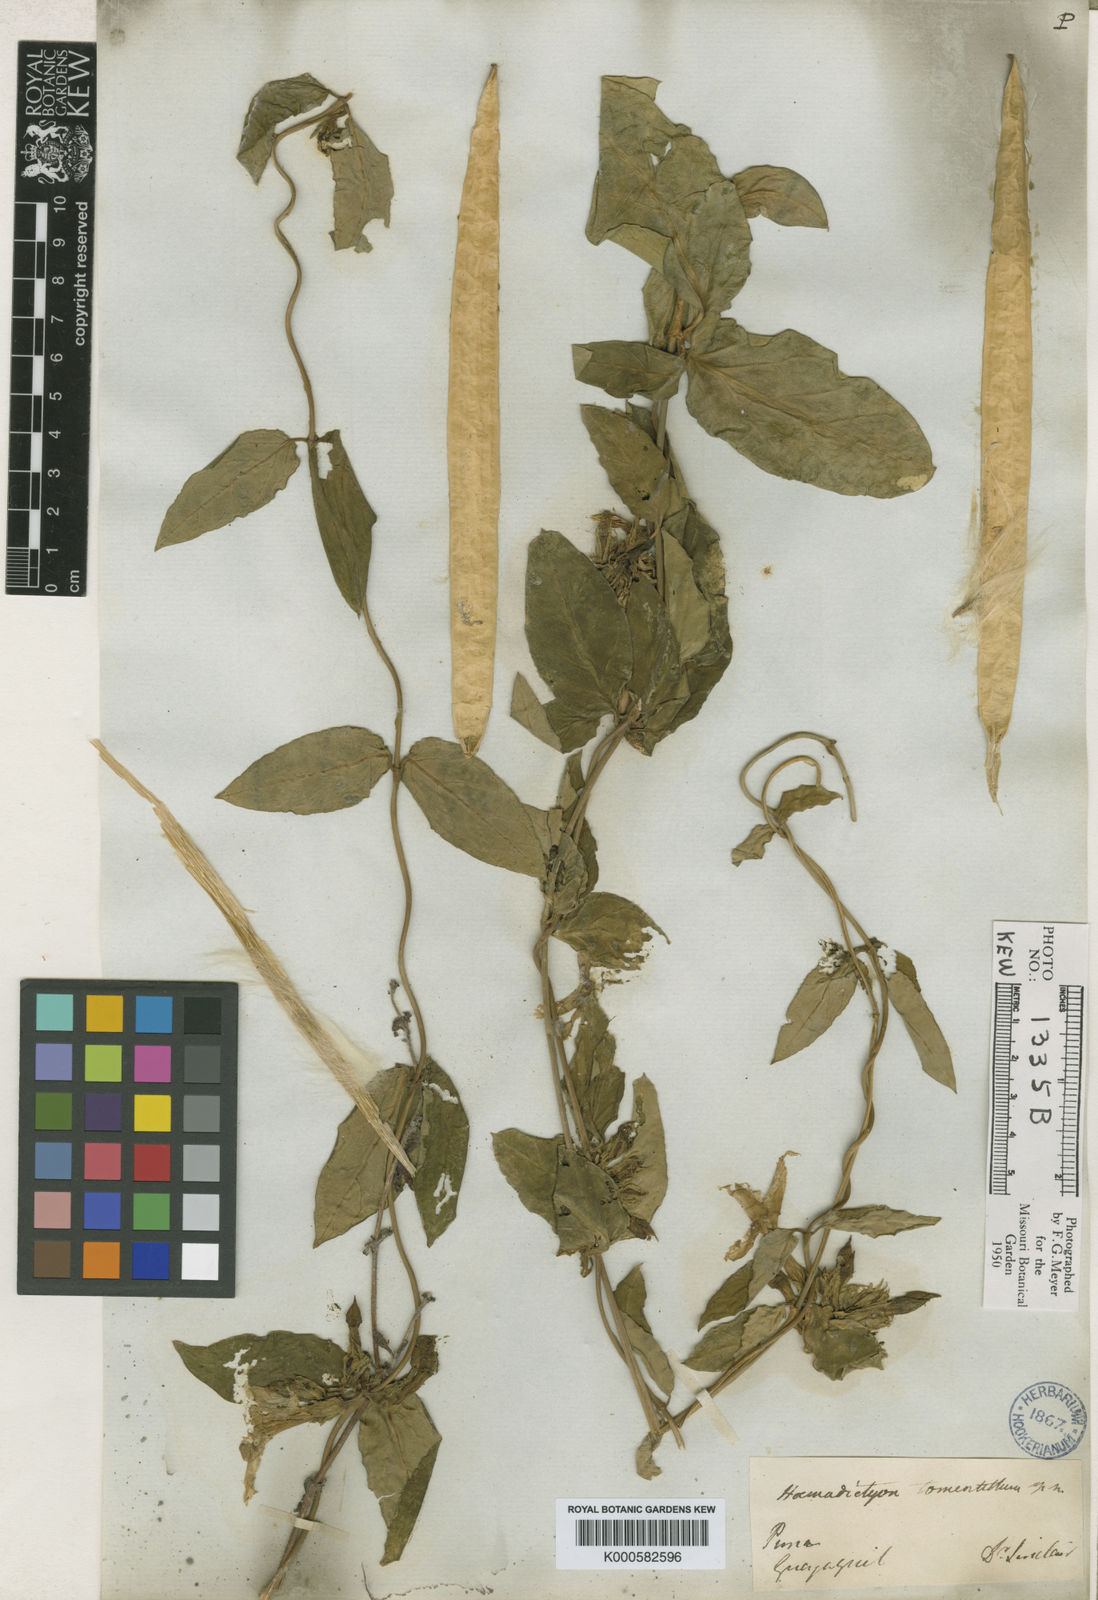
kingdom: Plantae
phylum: Tracheophyta
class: Magnoliopsida
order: Gentianales
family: Apocynaceae
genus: Prestonia
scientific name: Prestonia
